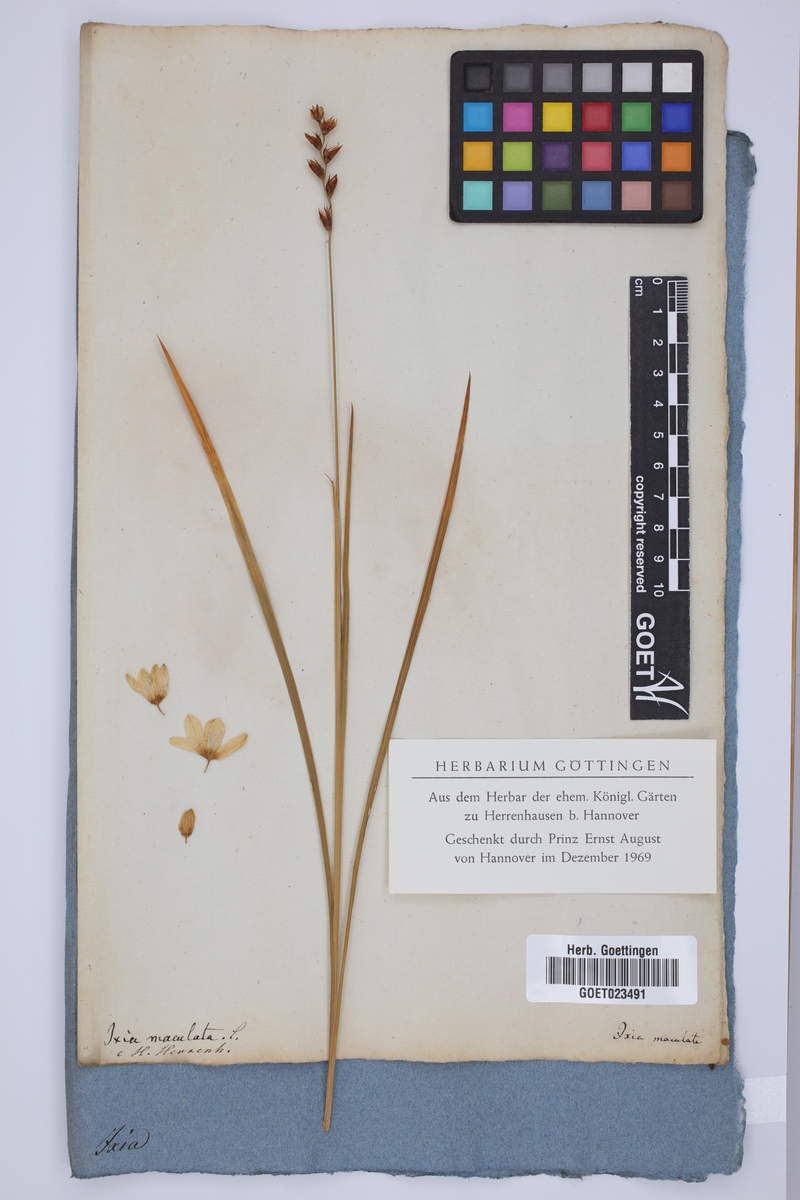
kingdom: Plantae
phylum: Tracheophyta
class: Liliopsida
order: Asparagales
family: Iridaceae
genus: Ixia
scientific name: Ixia maculata
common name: Spotted african cornlily
